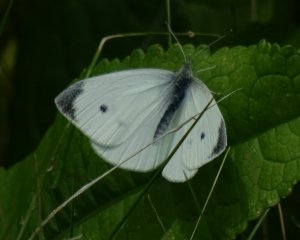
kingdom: Animalia
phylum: Arthropoda
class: Insecta
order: Lepidoptera
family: Pieridae
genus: Pieris
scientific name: Pieris rapae
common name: Cabbage White
